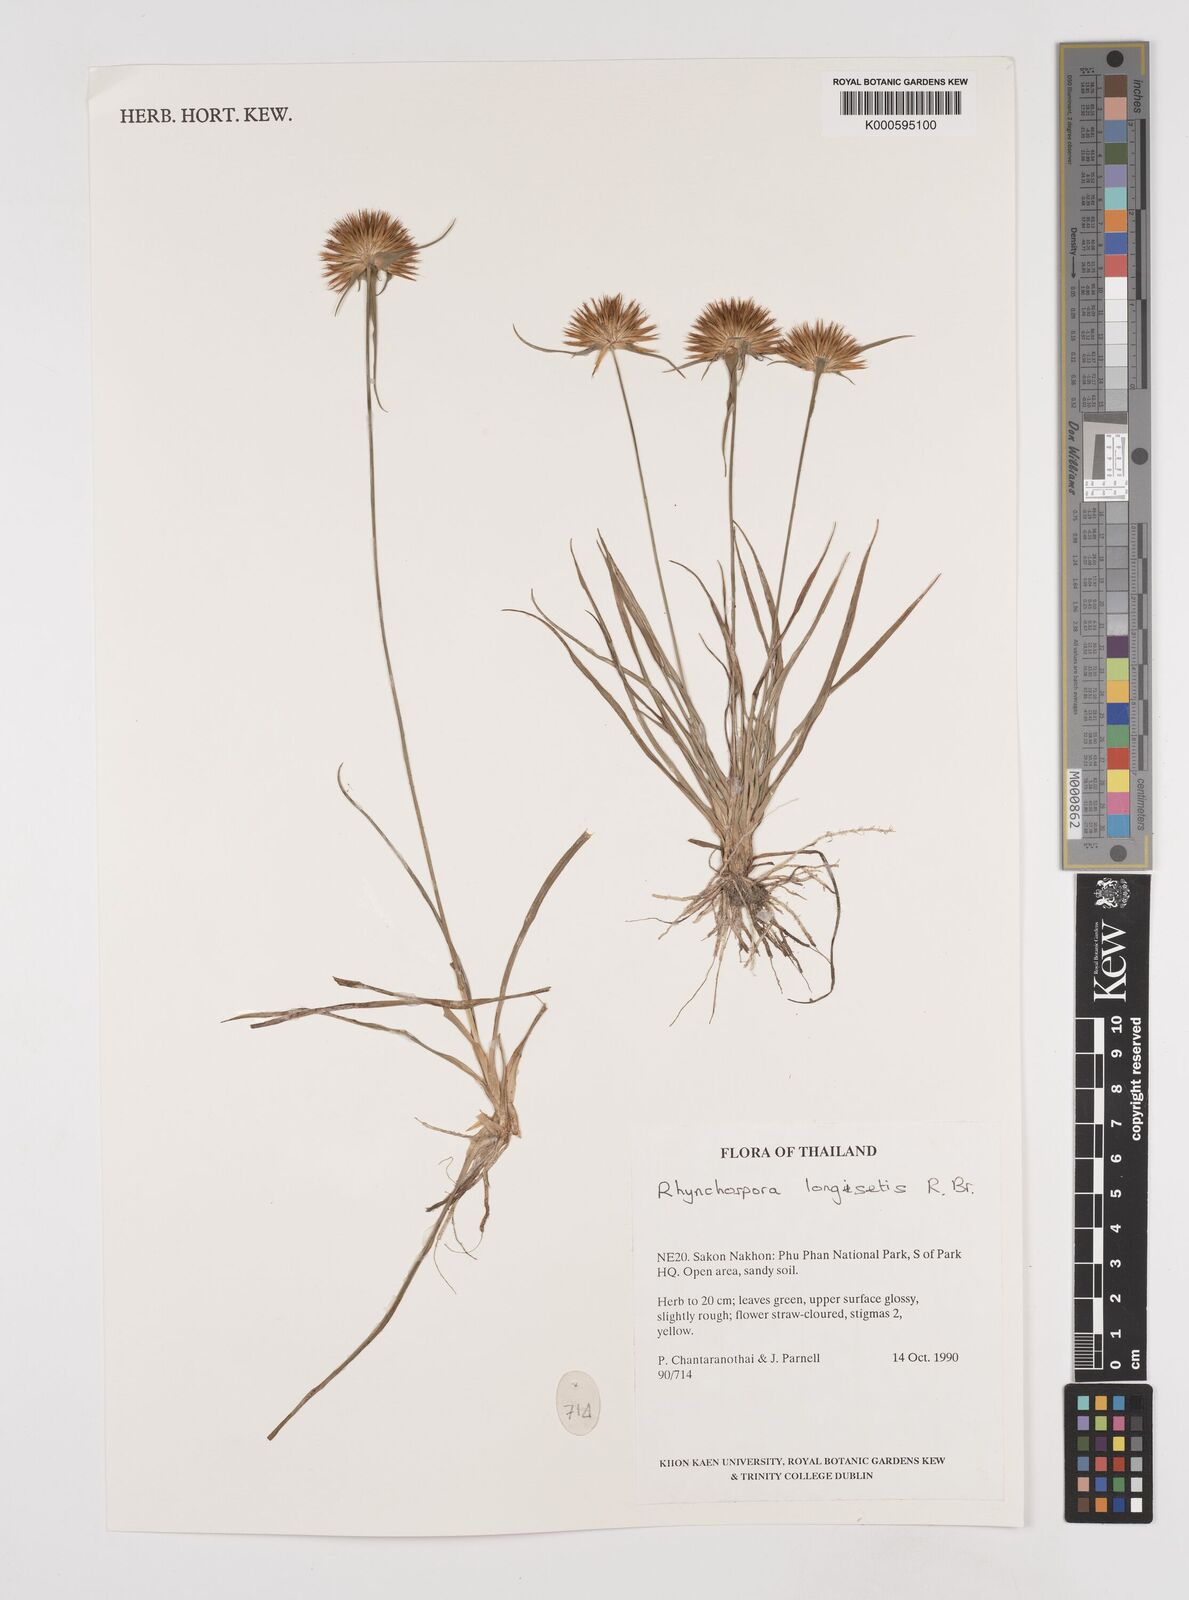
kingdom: Plantae
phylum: Tracheophyta
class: Liliopsida
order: Poales
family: Cyperaceae
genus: Rhynchospora
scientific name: Rhynchospora longisetis
